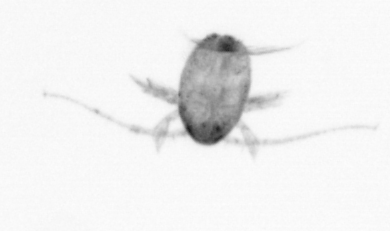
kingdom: Animalia
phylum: Arthropoda
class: Copepoda
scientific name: Copepoda
